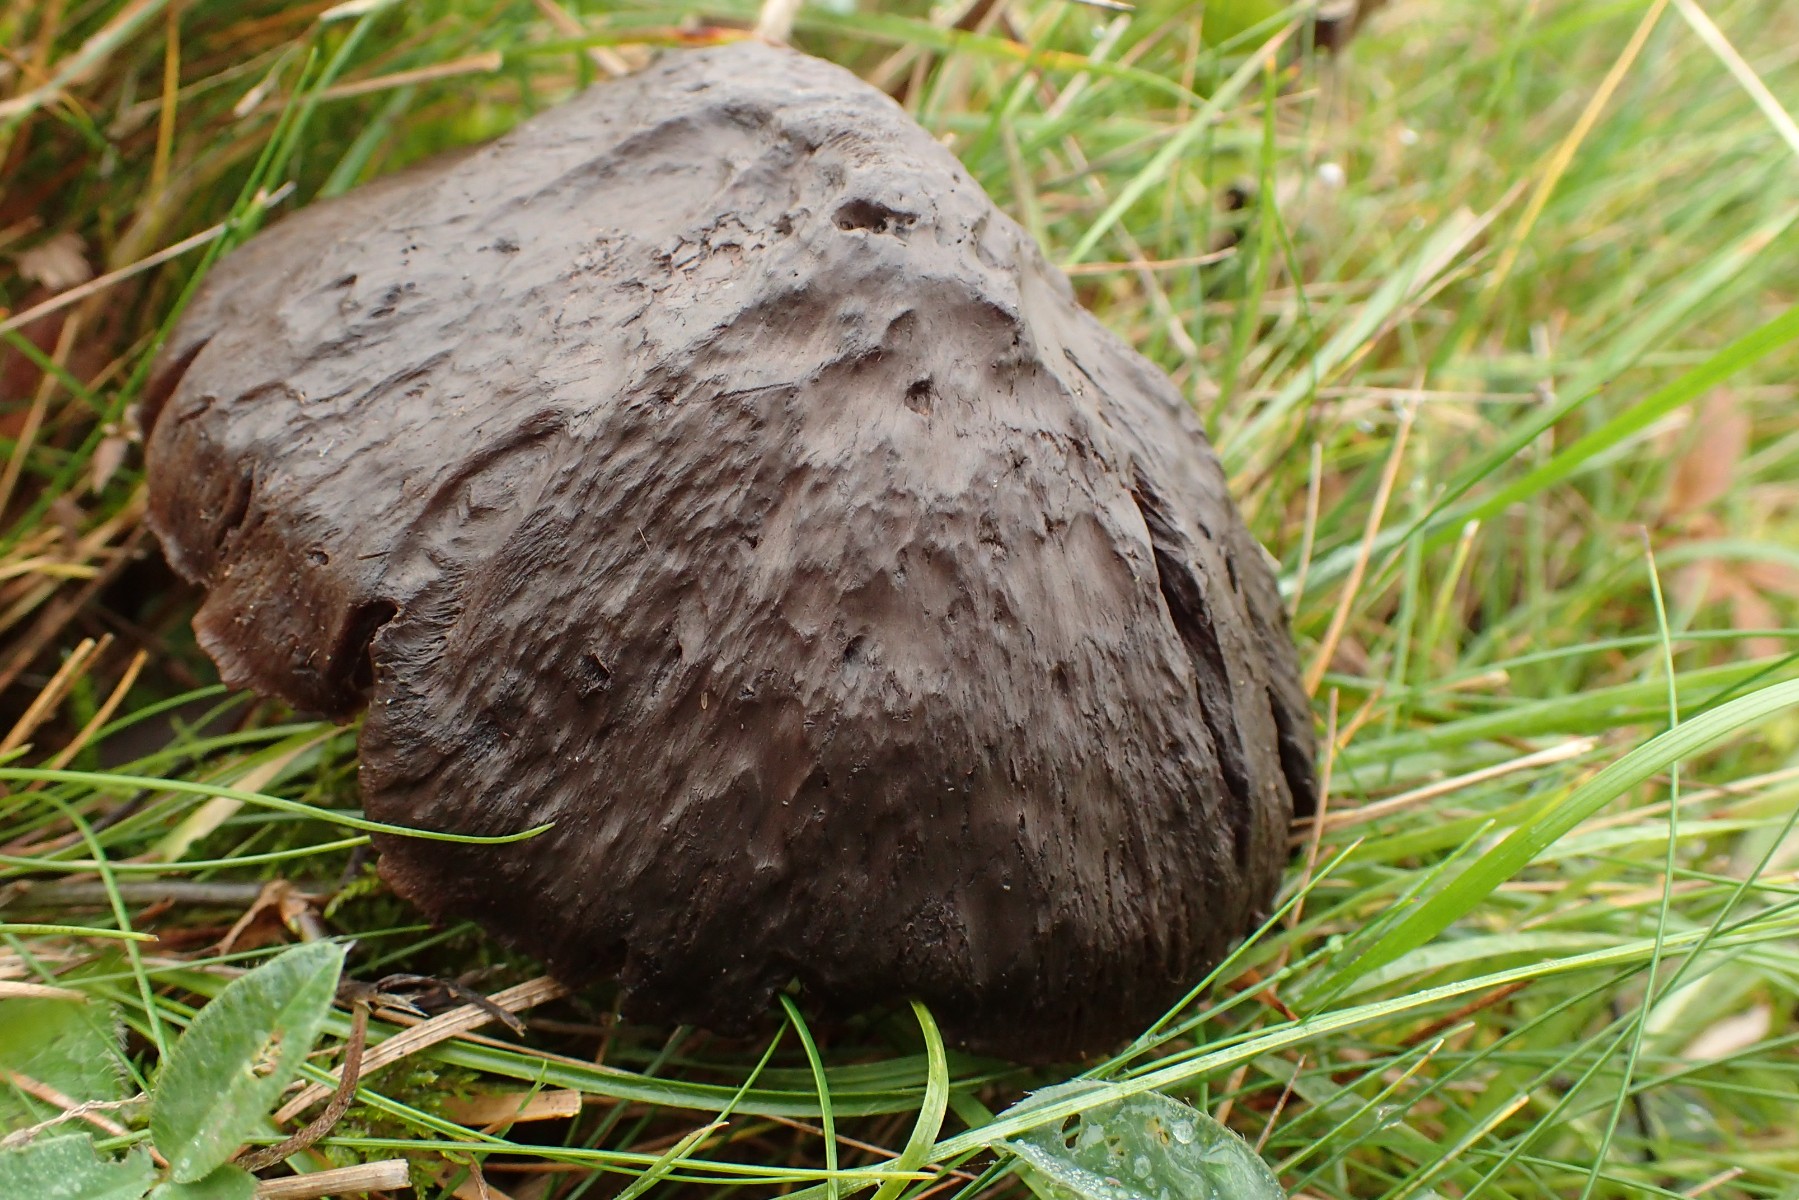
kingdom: Fungi
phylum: Basidiomycota
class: Agaricomycetes
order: Agaricales
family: Hygrophoraceae
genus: Neohygrocybe
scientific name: Neohygrocybe ovina
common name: rødmende vokshat
